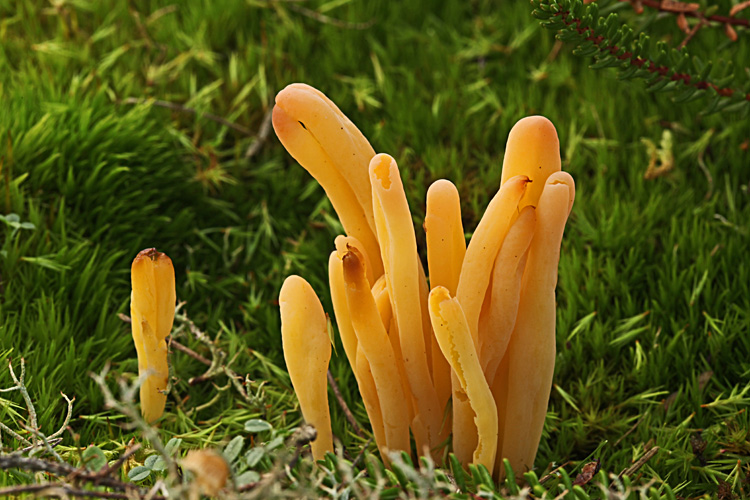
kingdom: Fungi
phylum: Basidiomycota
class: Agaricomycetes
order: Agaricales
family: Clavariaceae
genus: Clavaria
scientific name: Clavaria argillacea
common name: lerfarvet køllesvamp
